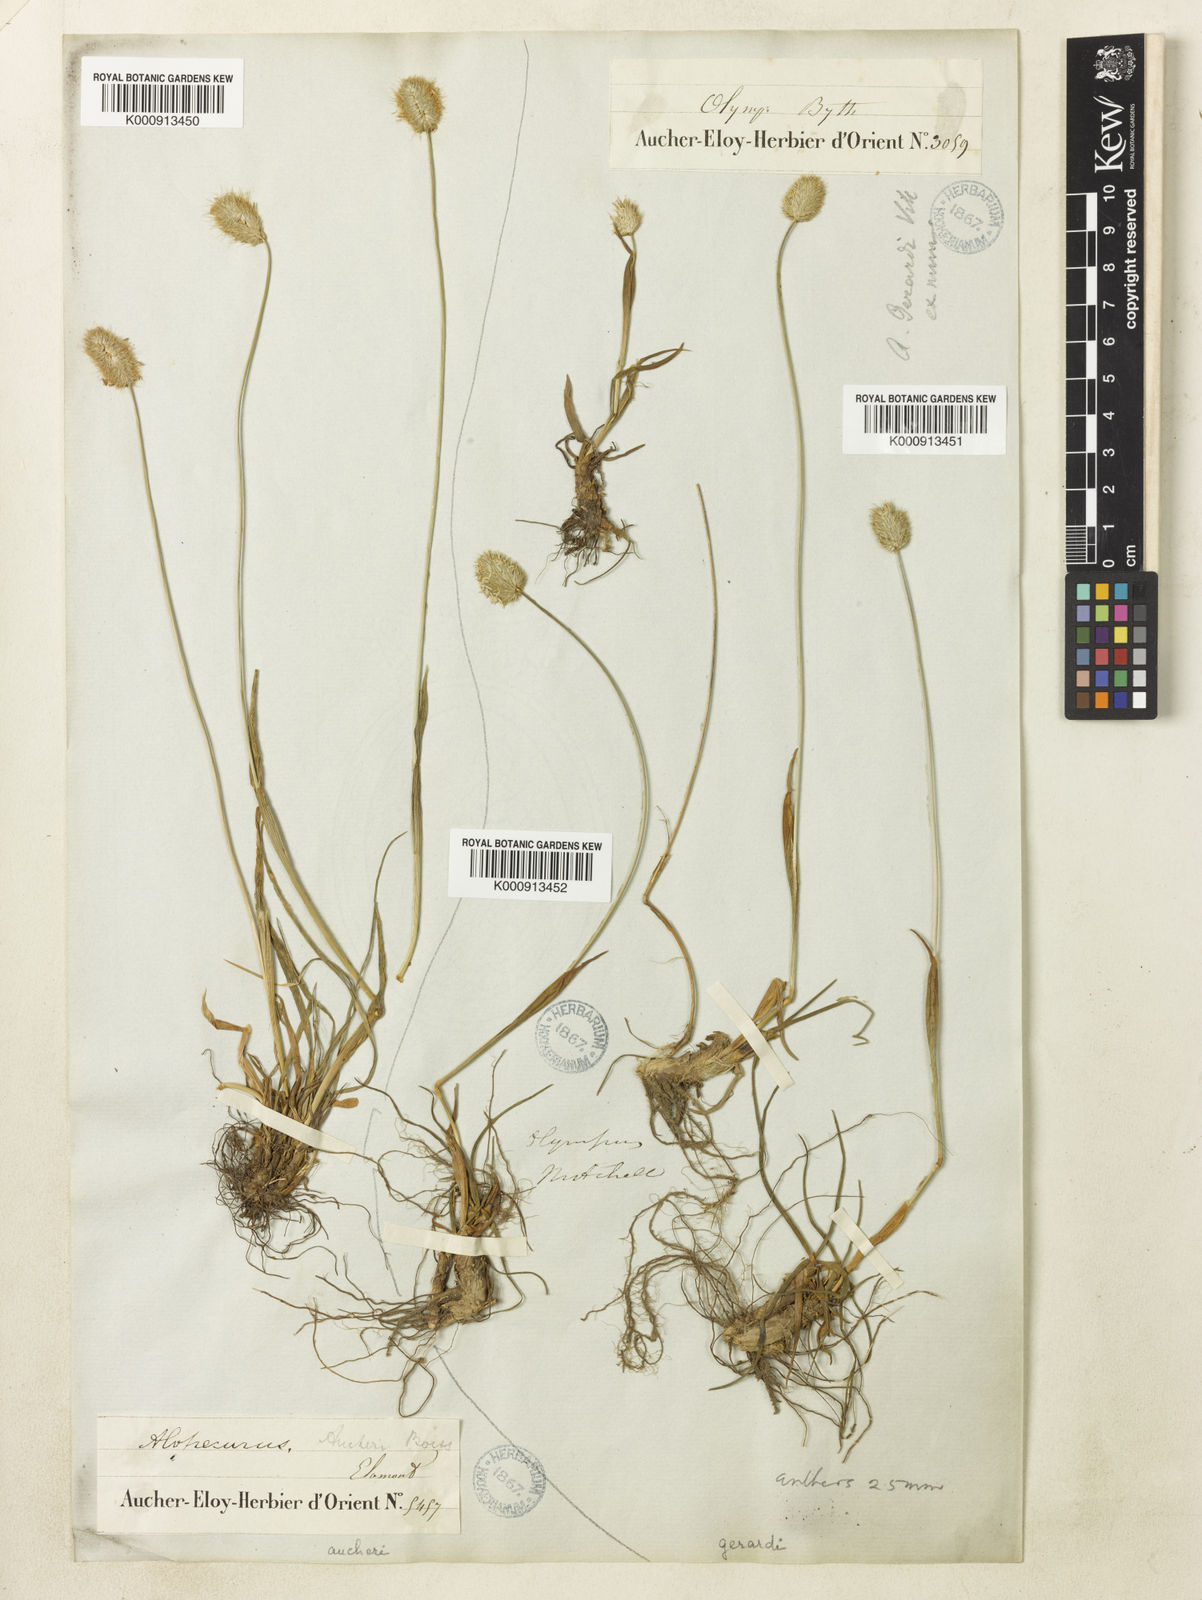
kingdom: Plantae
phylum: Tracheophyta
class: Liliopsida
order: Poales
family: Poaceae
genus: Alopecurus
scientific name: Alopecurus aucheri
